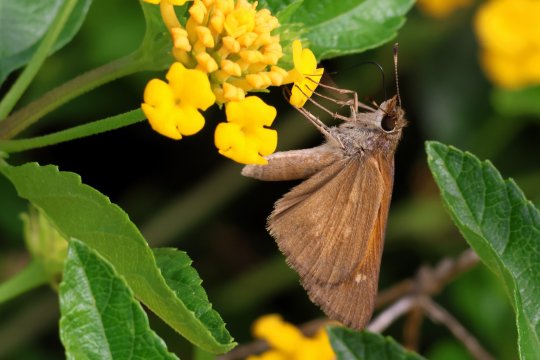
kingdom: Animalia
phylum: Arthropoda
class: Insecta
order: Lepidoptera
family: Hesperiidae
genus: Poanes
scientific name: Poanes viator
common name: Broad-winged Skipper
